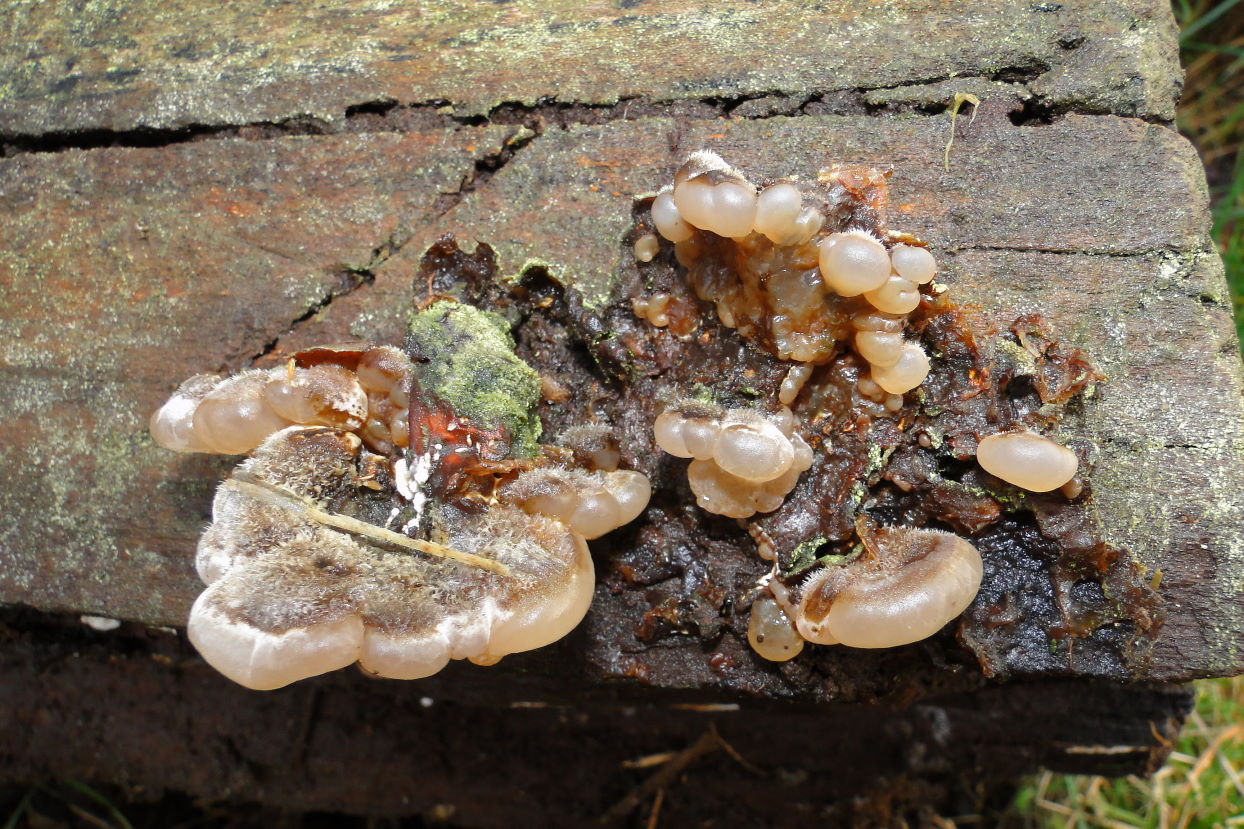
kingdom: Fungi
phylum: Basidiomycota
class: Agaricomycetes
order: Auriculariales
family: Auriculariaceae
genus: Auricularia
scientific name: Auricularia mesenterica
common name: håret judasøre
